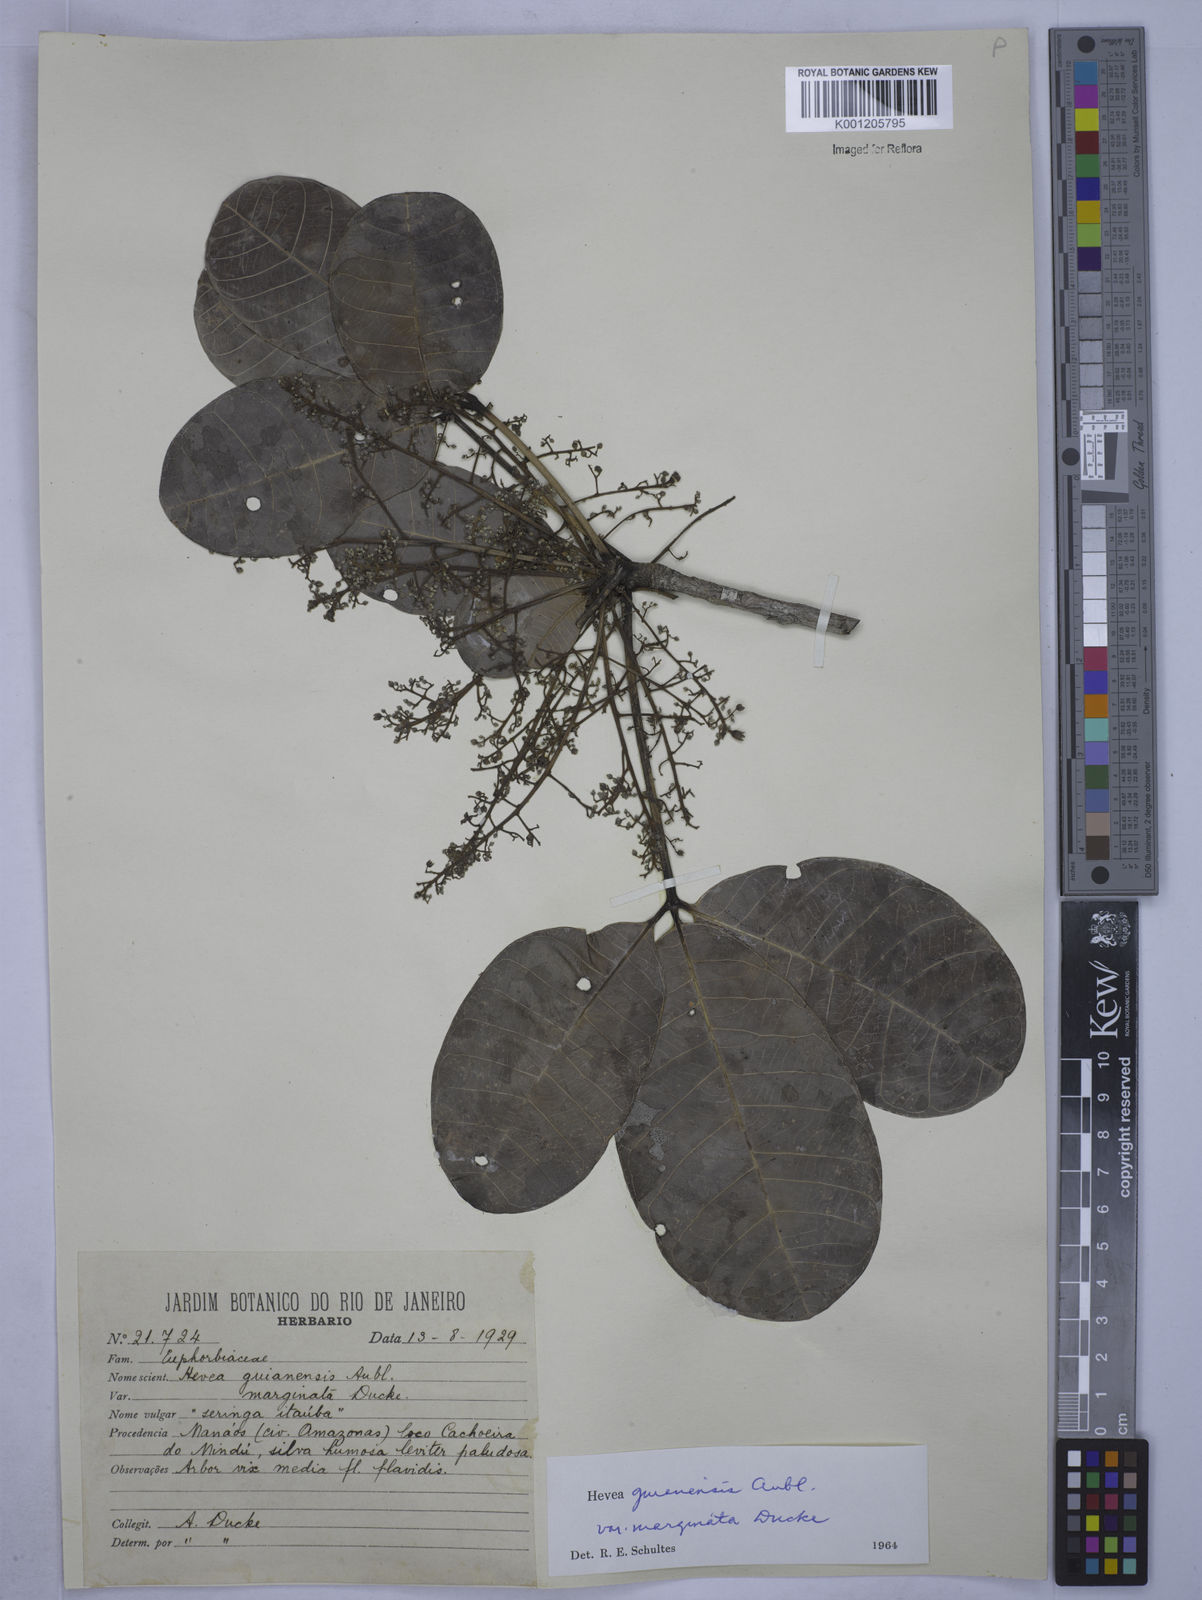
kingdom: Plantae
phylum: Tracheophyta
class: Magnoliopsida
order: Malpighiales
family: Euphorbiaceae
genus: Hevea
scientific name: Hevea guianensis
